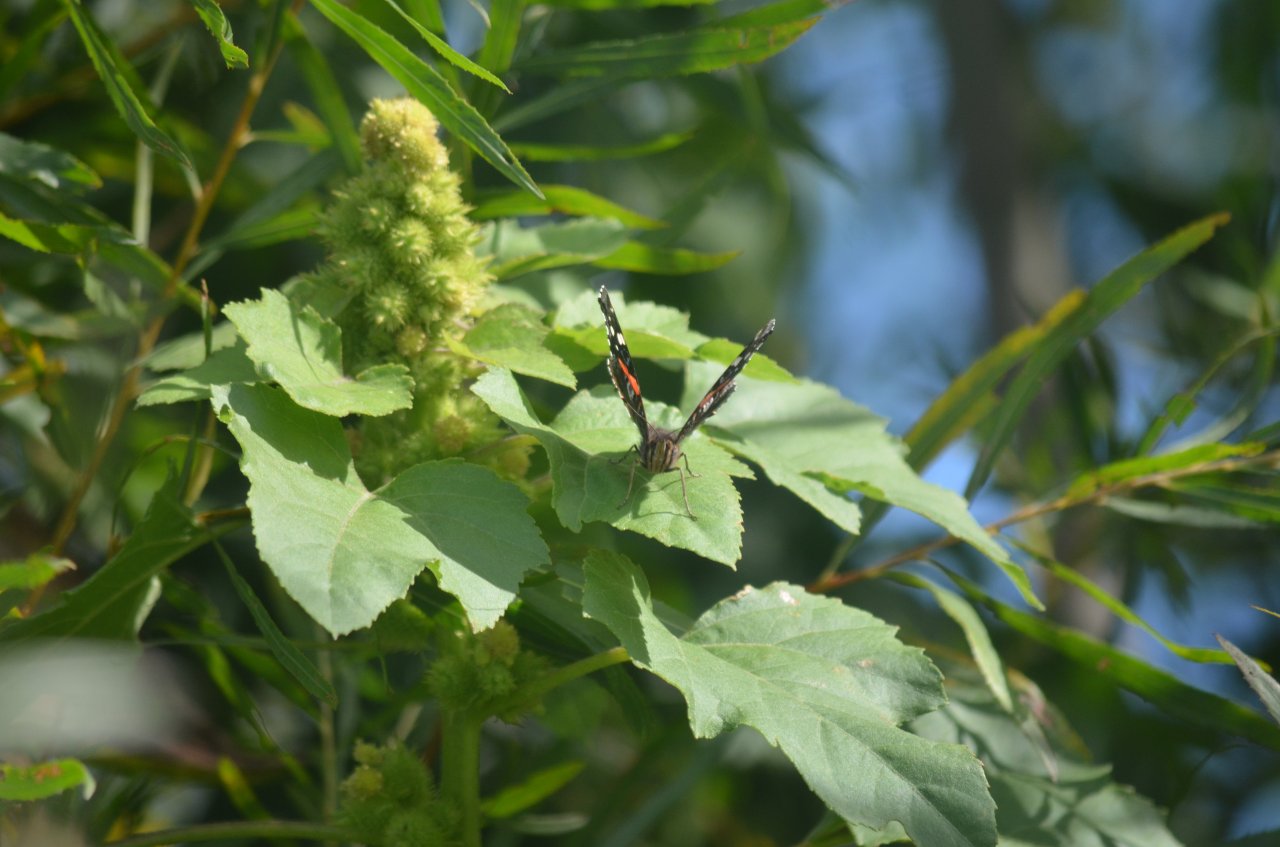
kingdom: Animalia
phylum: Arthropoda
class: Insecta
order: Lepidoptera
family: Nymphalidae
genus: Vanessa
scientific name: Vanessa atalanta
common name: Red Admiral
